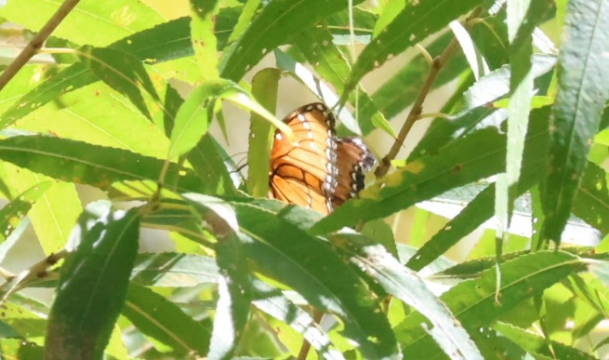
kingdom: Animalia
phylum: Arthropoda
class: Insecta
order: Lepidoptera
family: Nymphalidae
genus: Limenitis
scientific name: Limenitis archippus
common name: Viceroy
